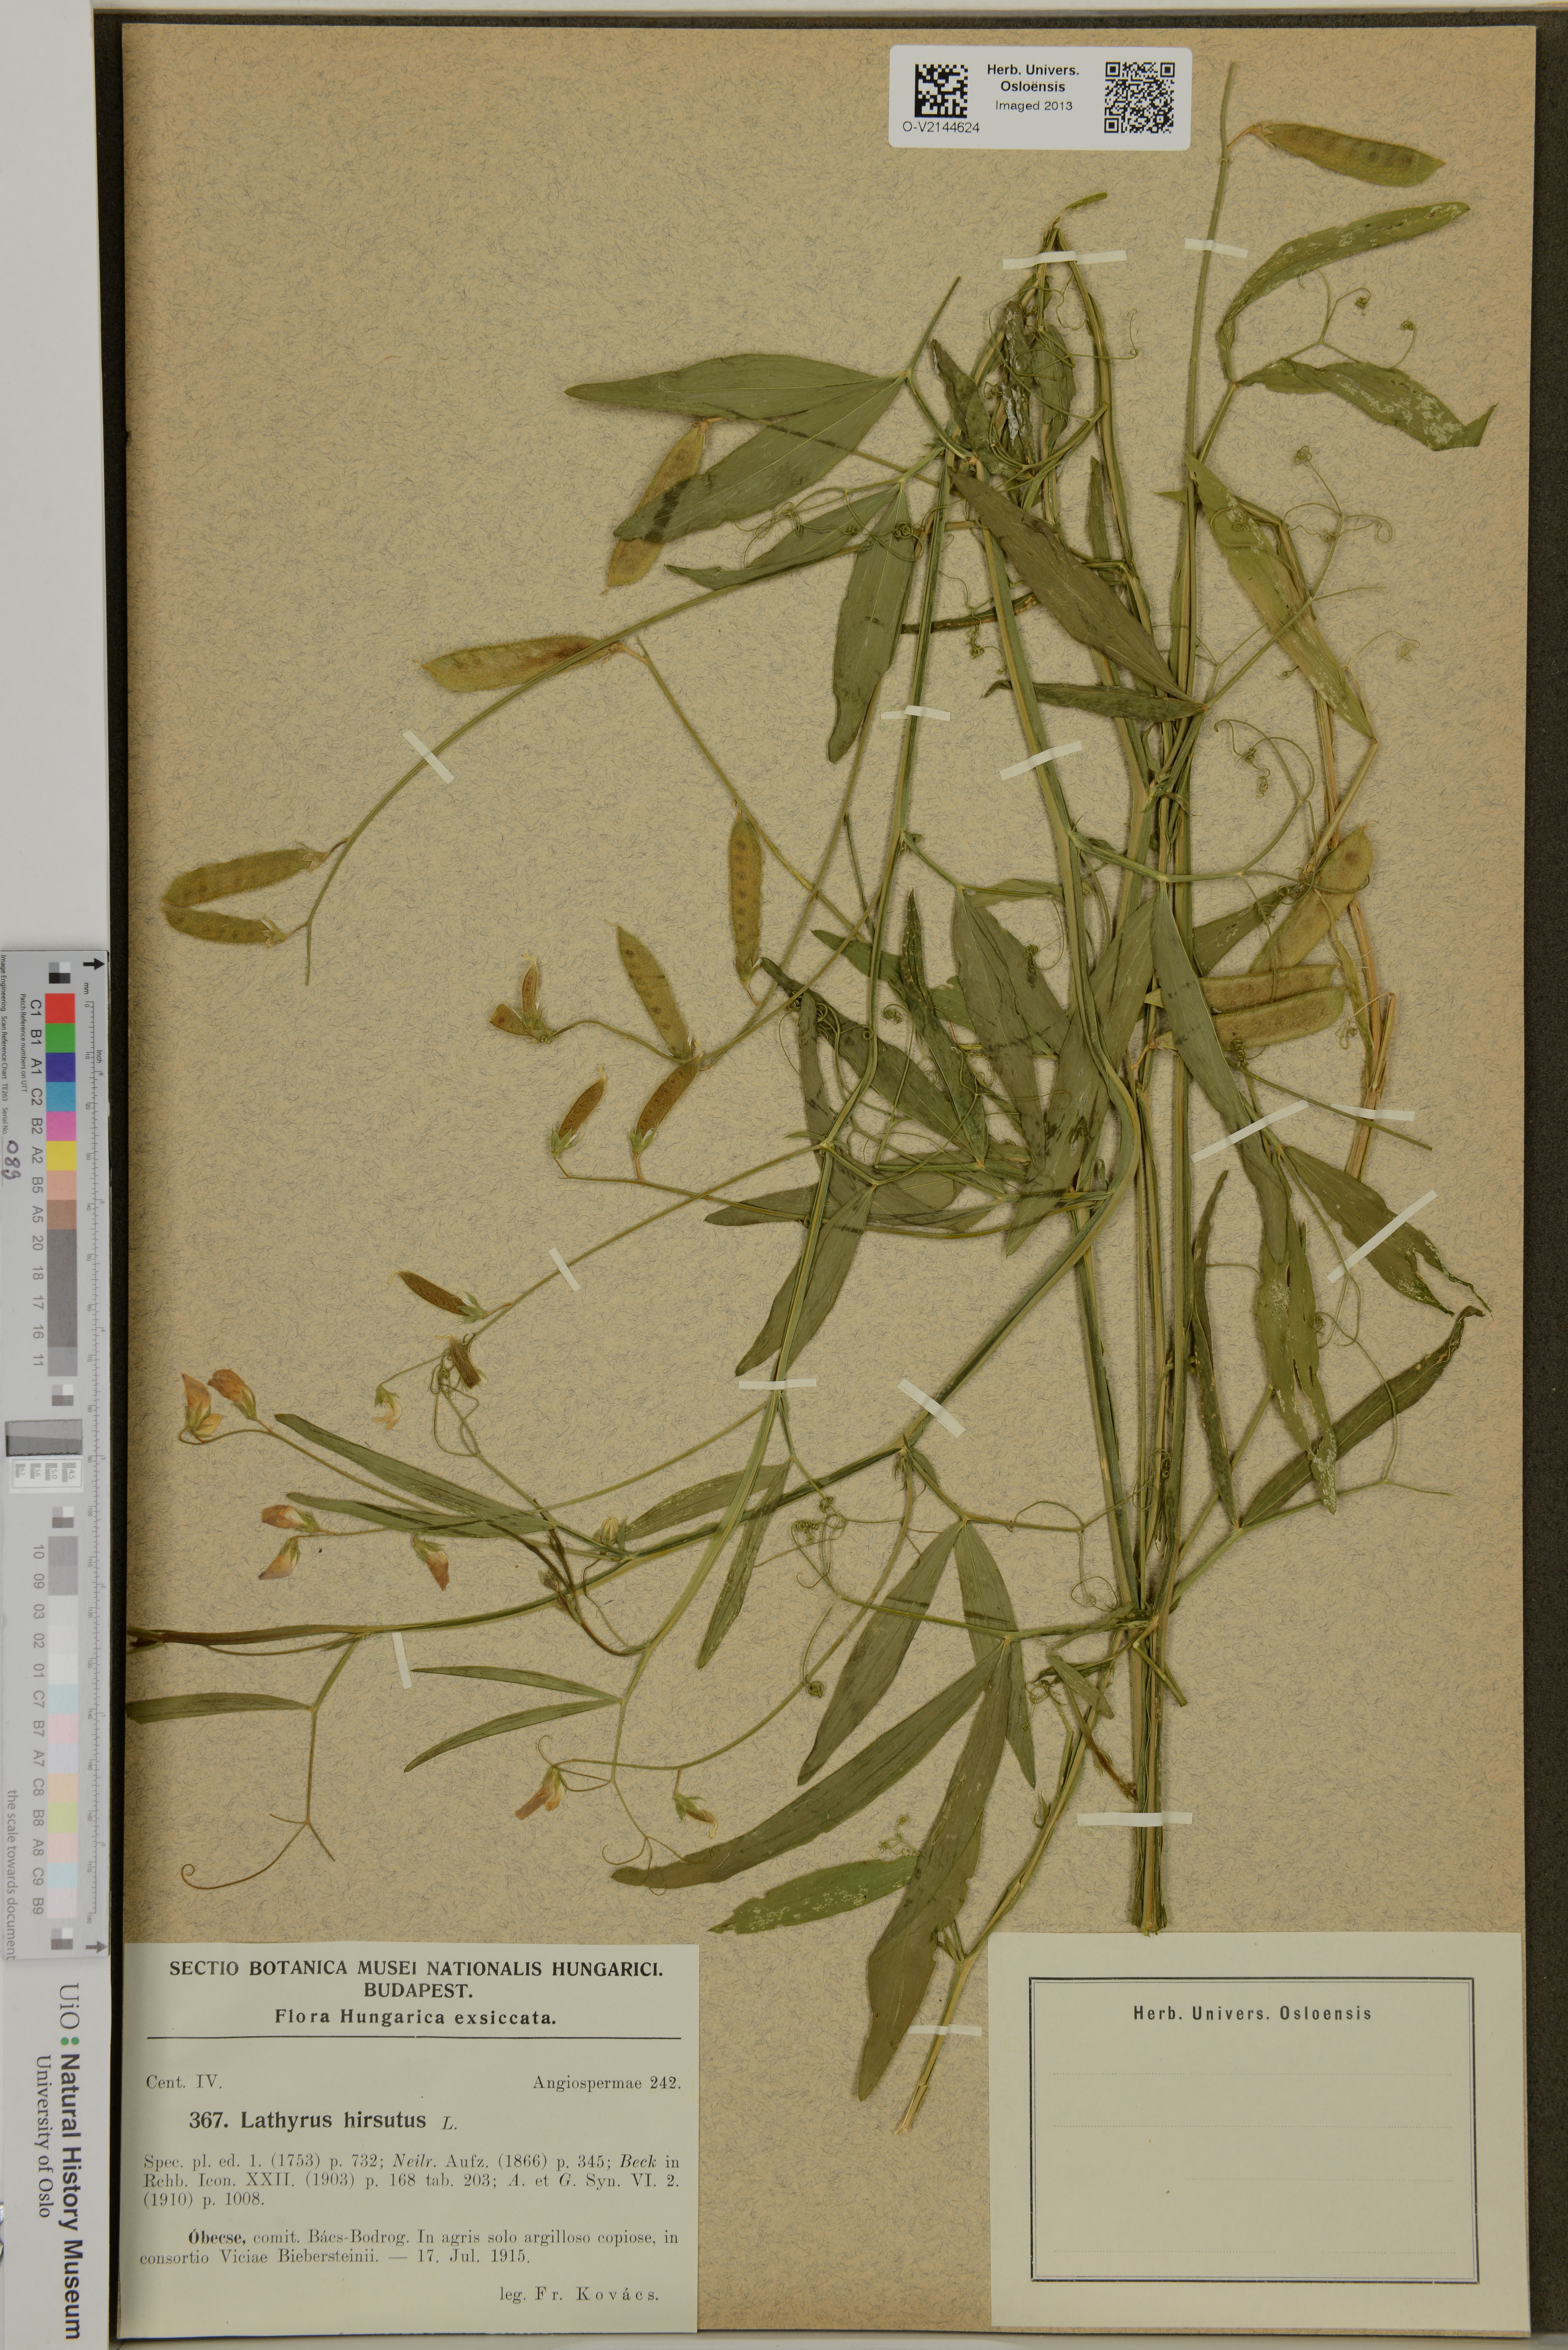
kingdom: Plantae
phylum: Tracheophyta
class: Magnoliopsida
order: Fabales
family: Fabaceae
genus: Lathyrus
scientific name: Lathyrus hirsutus
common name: Hairy vetchling
